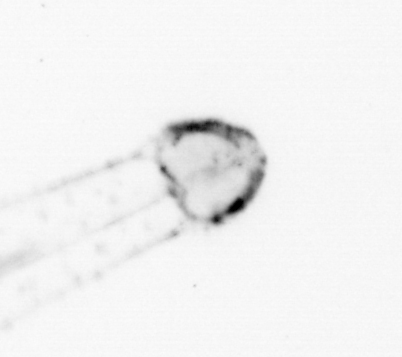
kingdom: Animalia
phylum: Chaetognatha
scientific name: Chaetognatha
